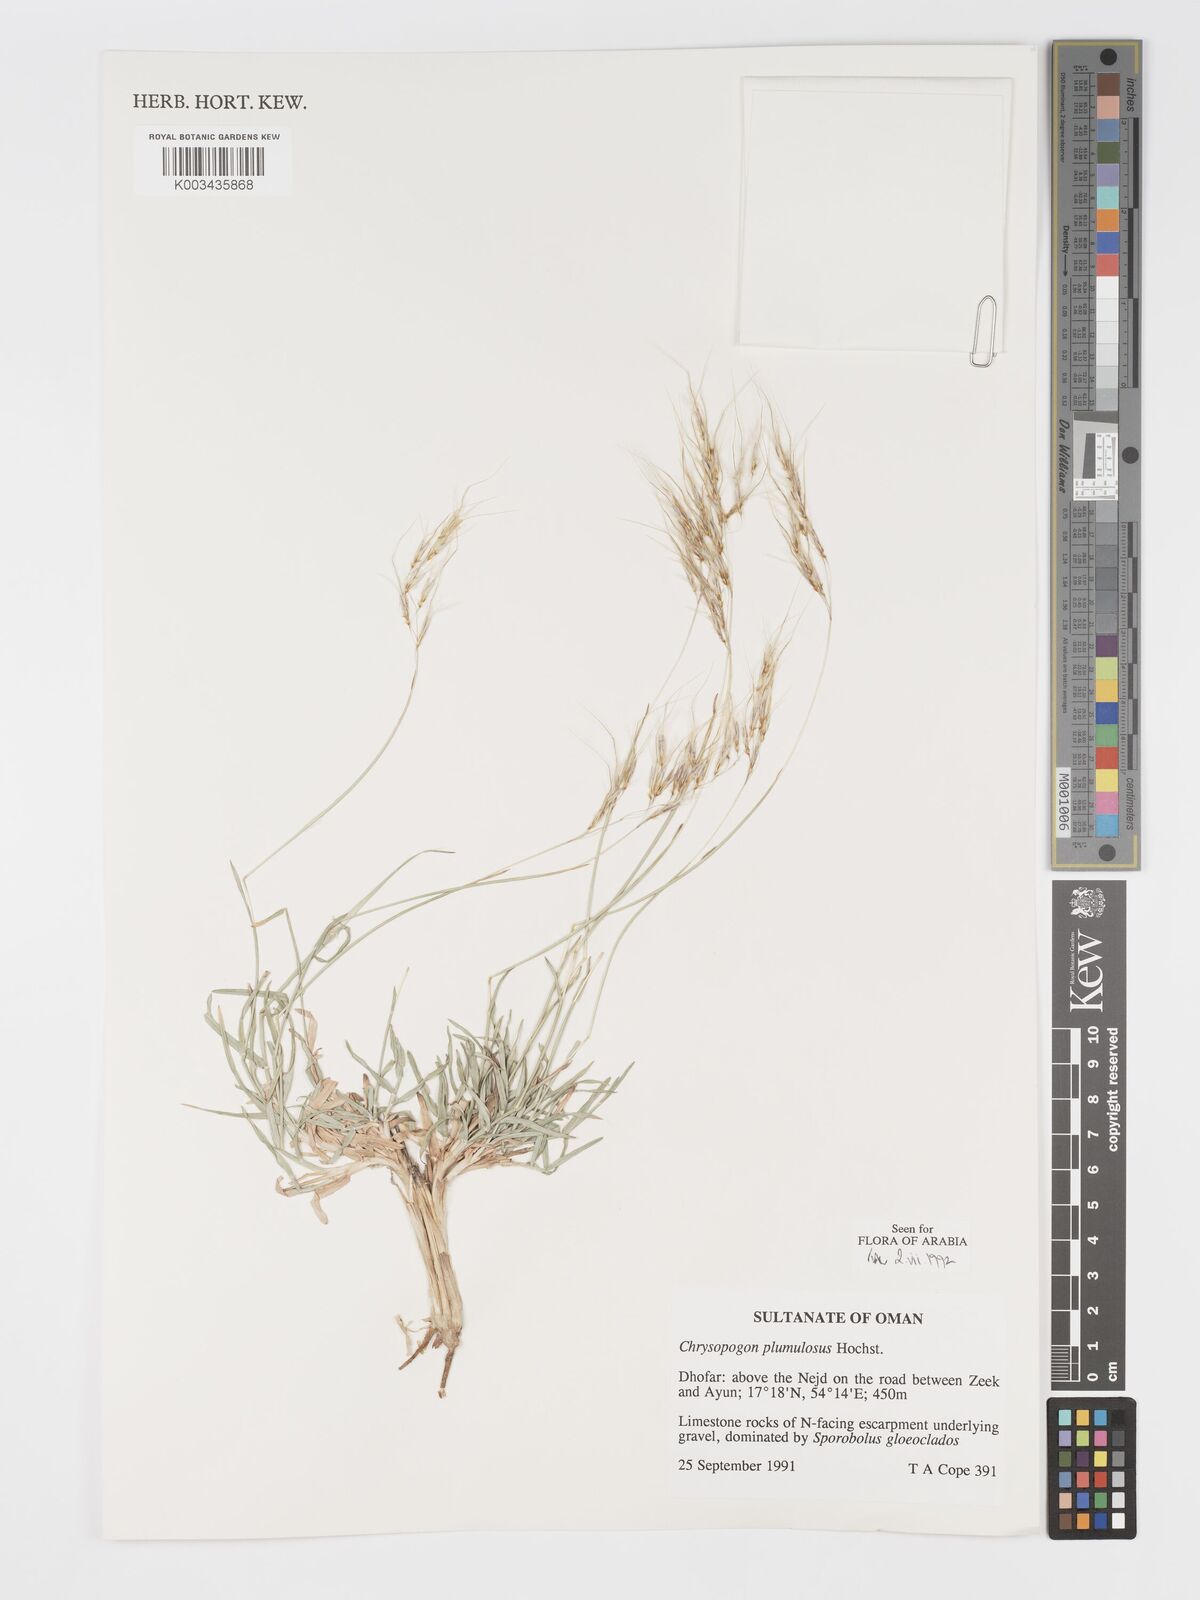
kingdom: Plantae
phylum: Tracheophyta
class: Liliopsida
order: Poales
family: Poaceae
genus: Chrysopogon
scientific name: Chrysopogon plumulosus
